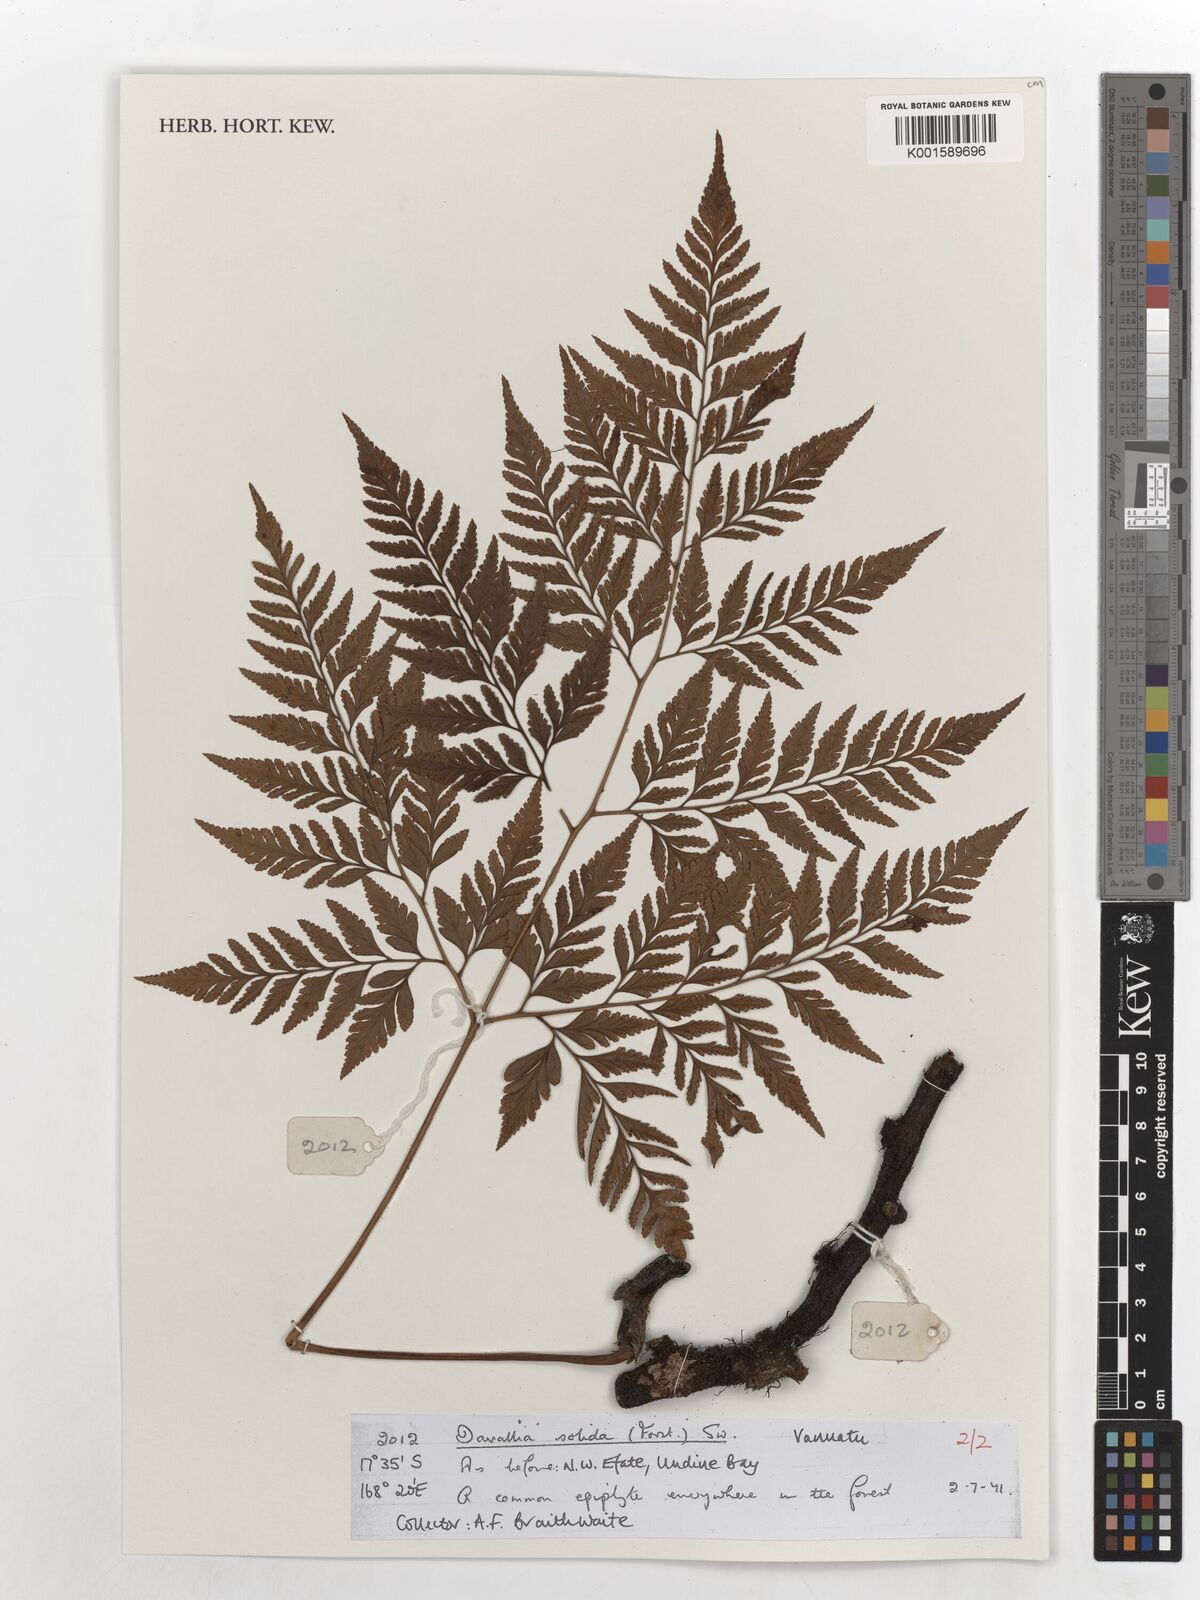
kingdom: Plantae
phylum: Tracheophyta
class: Polypodiopsida
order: Polypodiales
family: Davalliaceae
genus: Davallia
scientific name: Davallia solida
